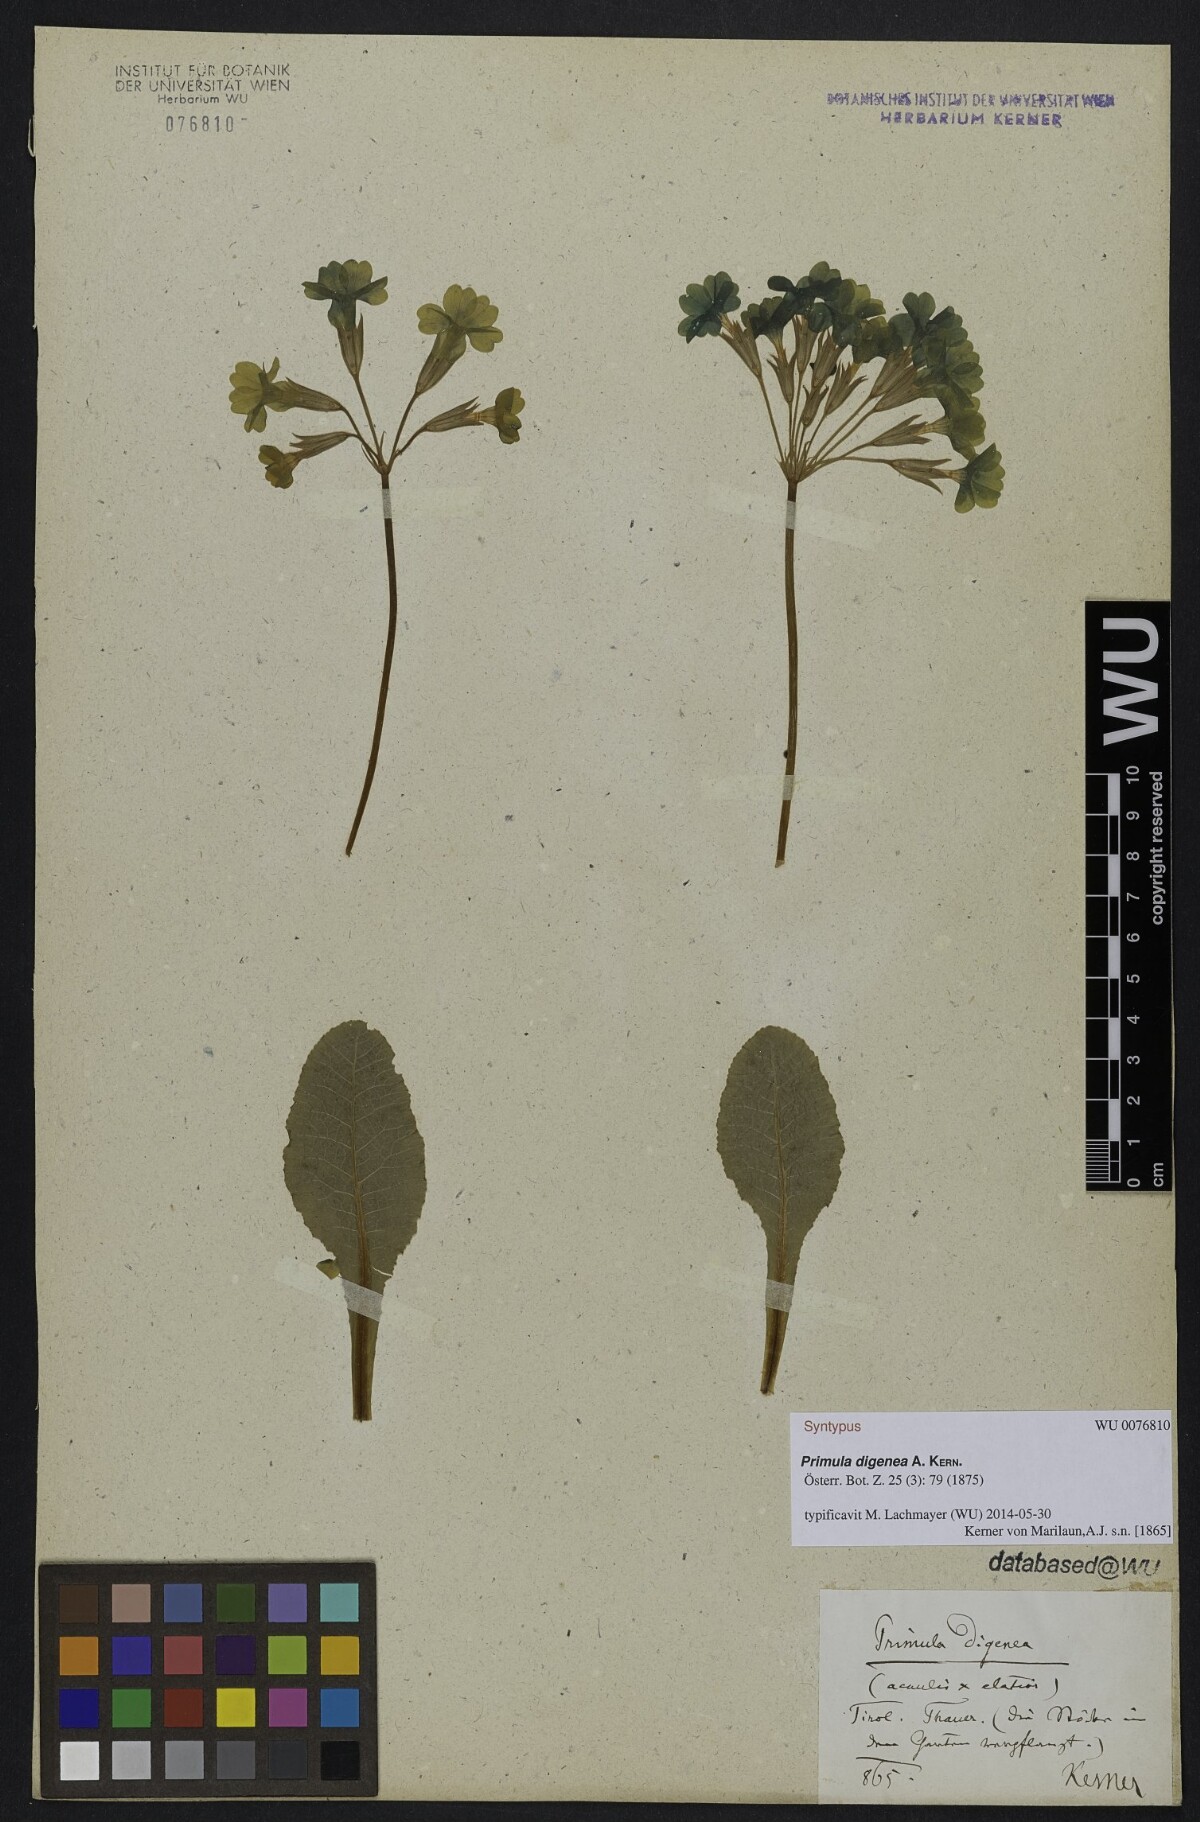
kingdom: Plantae
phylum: Tracheophyta
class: Magnoliopsida
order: Ericales
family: Primulaceae
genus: Primula
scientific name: Primula digenea
